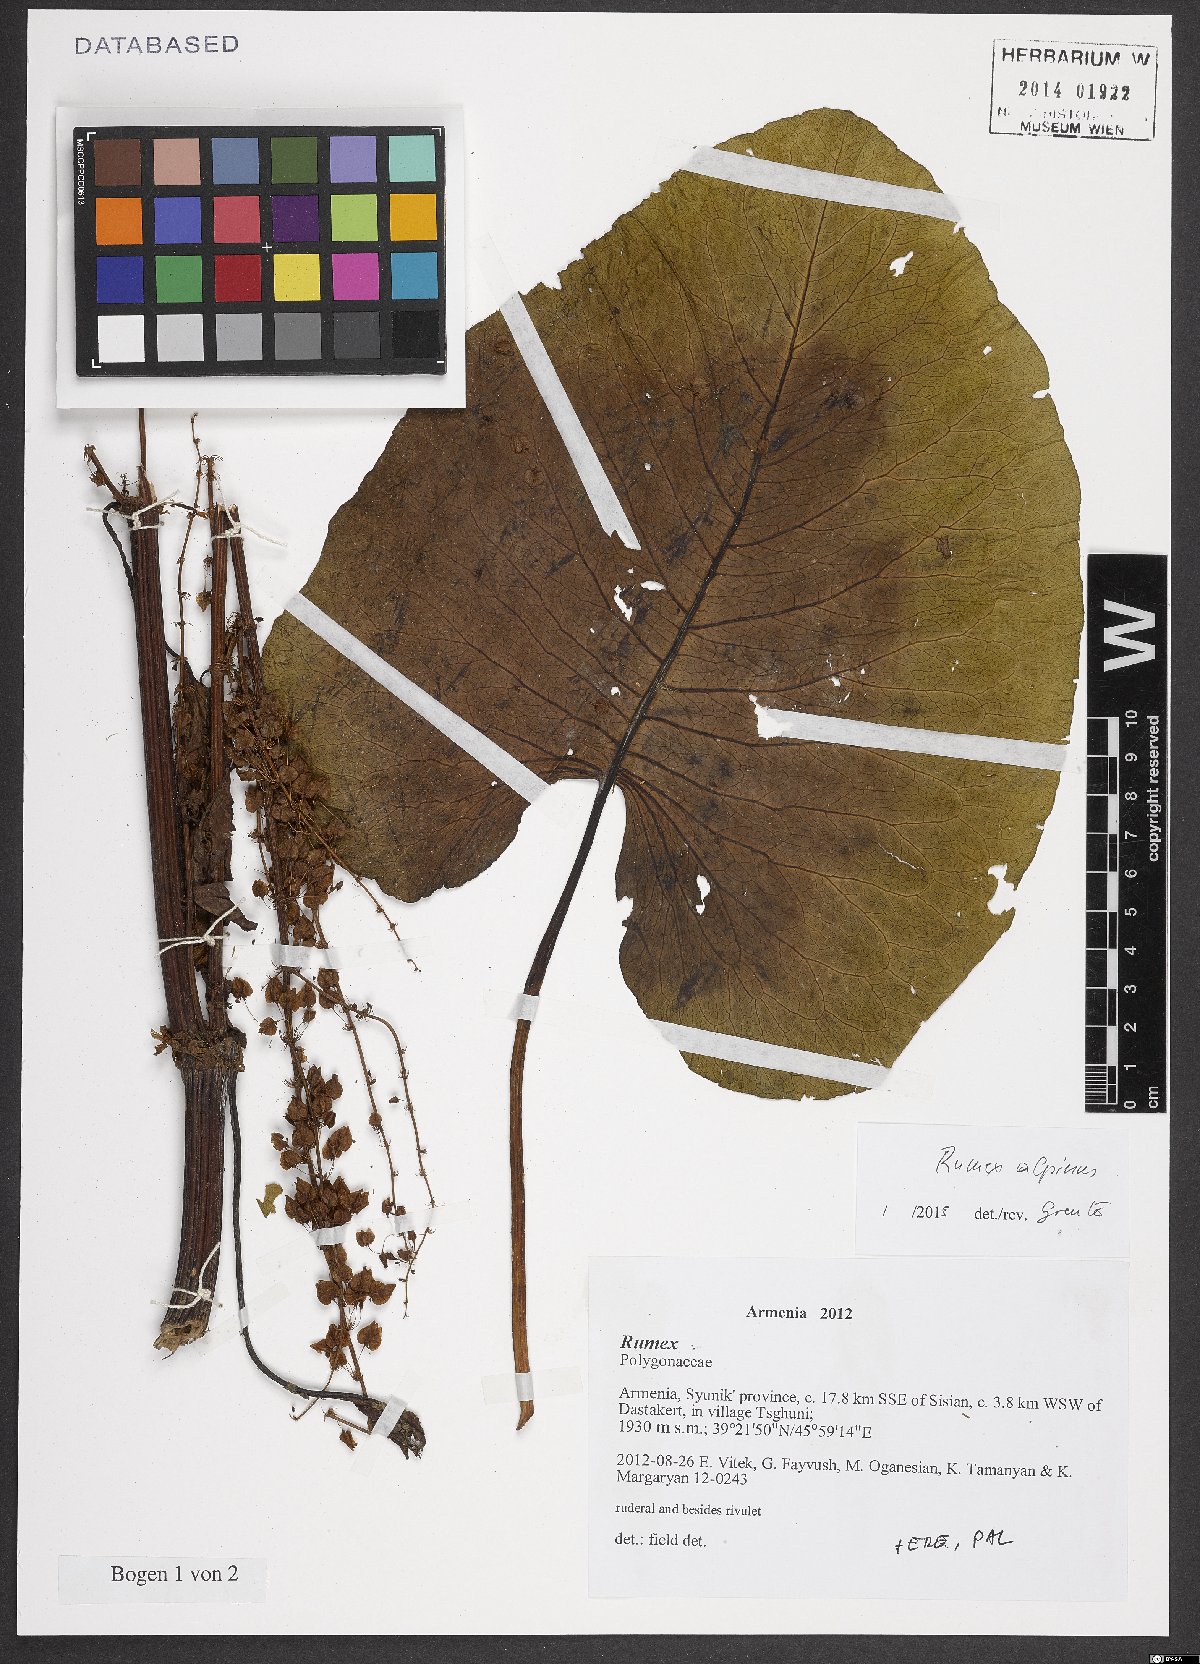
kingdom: Plantae
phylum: Tracheophyta
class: Magnoliopsida
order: Caryophyllales
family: Polygonaceae
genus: Rumex
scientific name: Rumex alpinus
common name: Alpine dock
